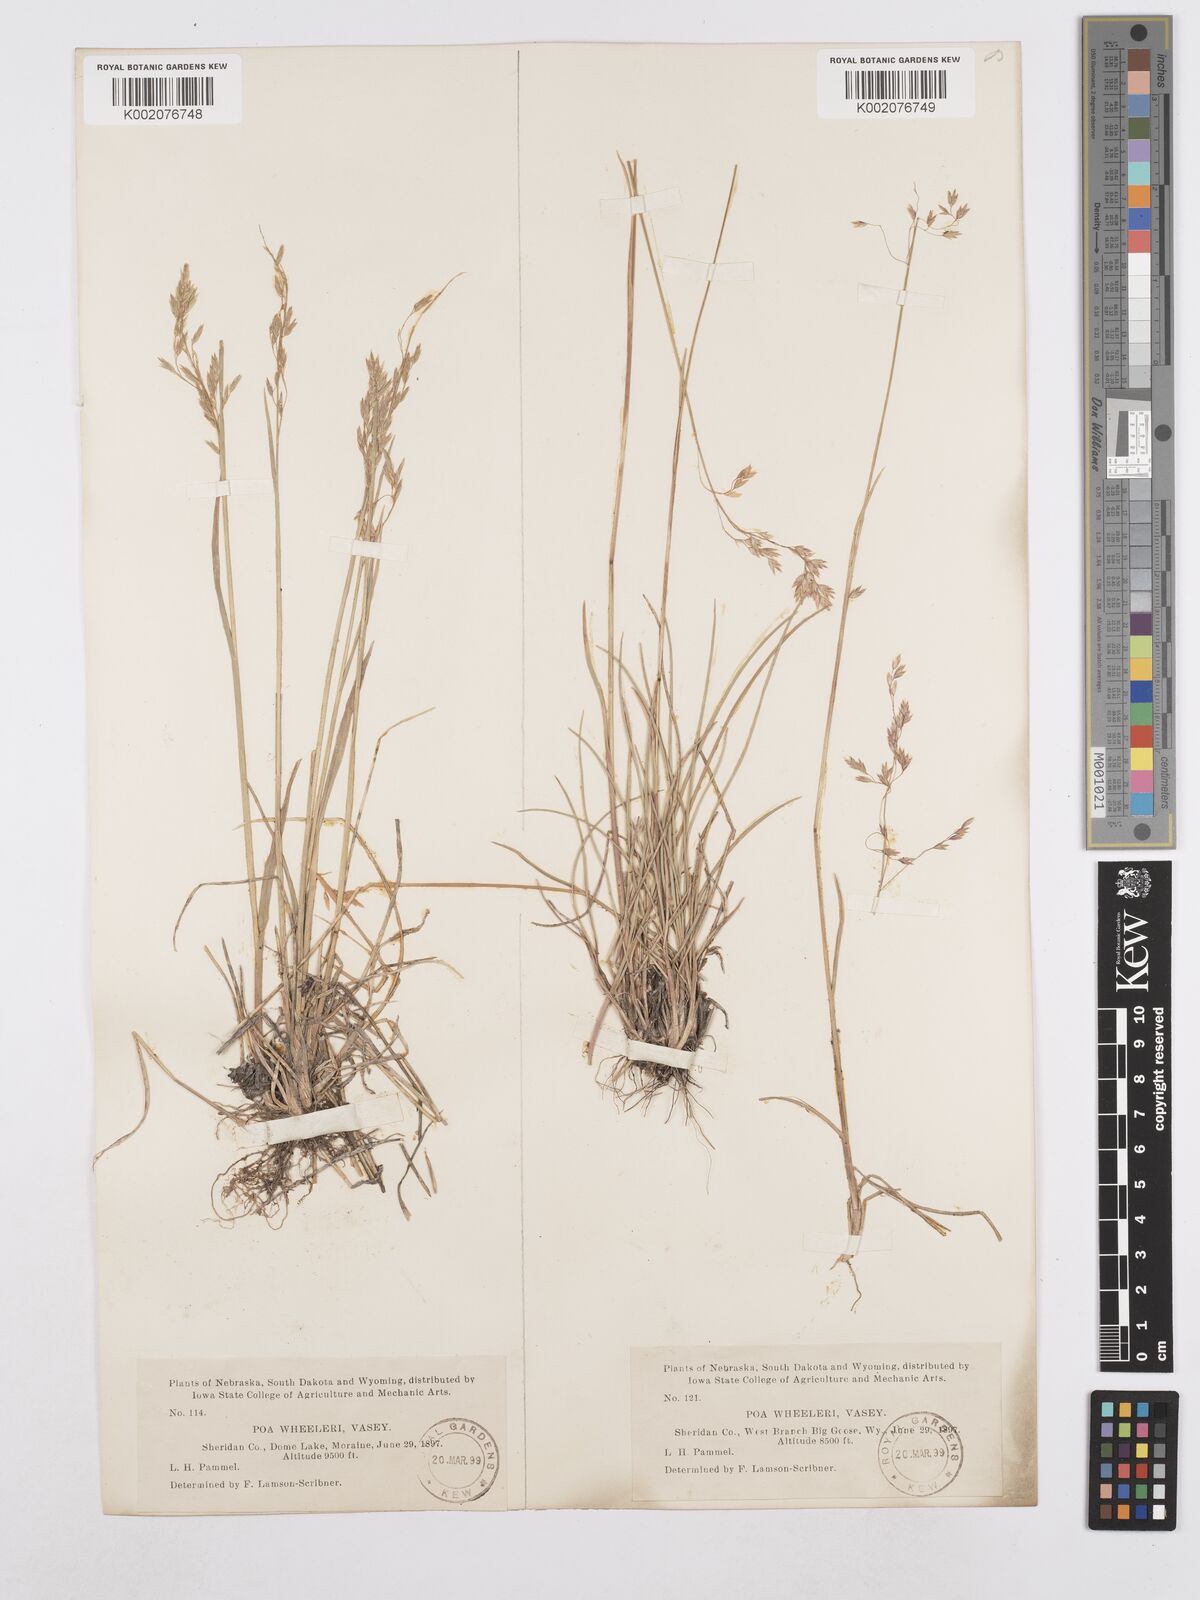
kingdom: Plantae
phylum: Tracheophyta
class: Liliopsida
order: Poales
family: Poaceae
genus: Poa
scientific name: Poa wheeleri
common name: Wheeler's bluegrass
